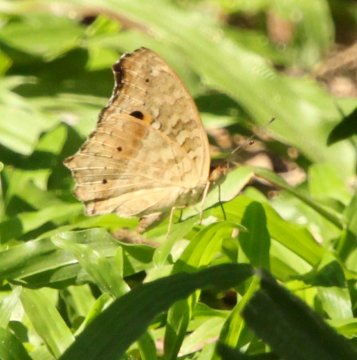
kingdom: Animalia
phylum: Arthropoda
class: Insecta
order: Lepidoptera
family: Nymphalidae
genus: Junonia
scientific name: Junonia lemonias
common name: Lemon Pansy
